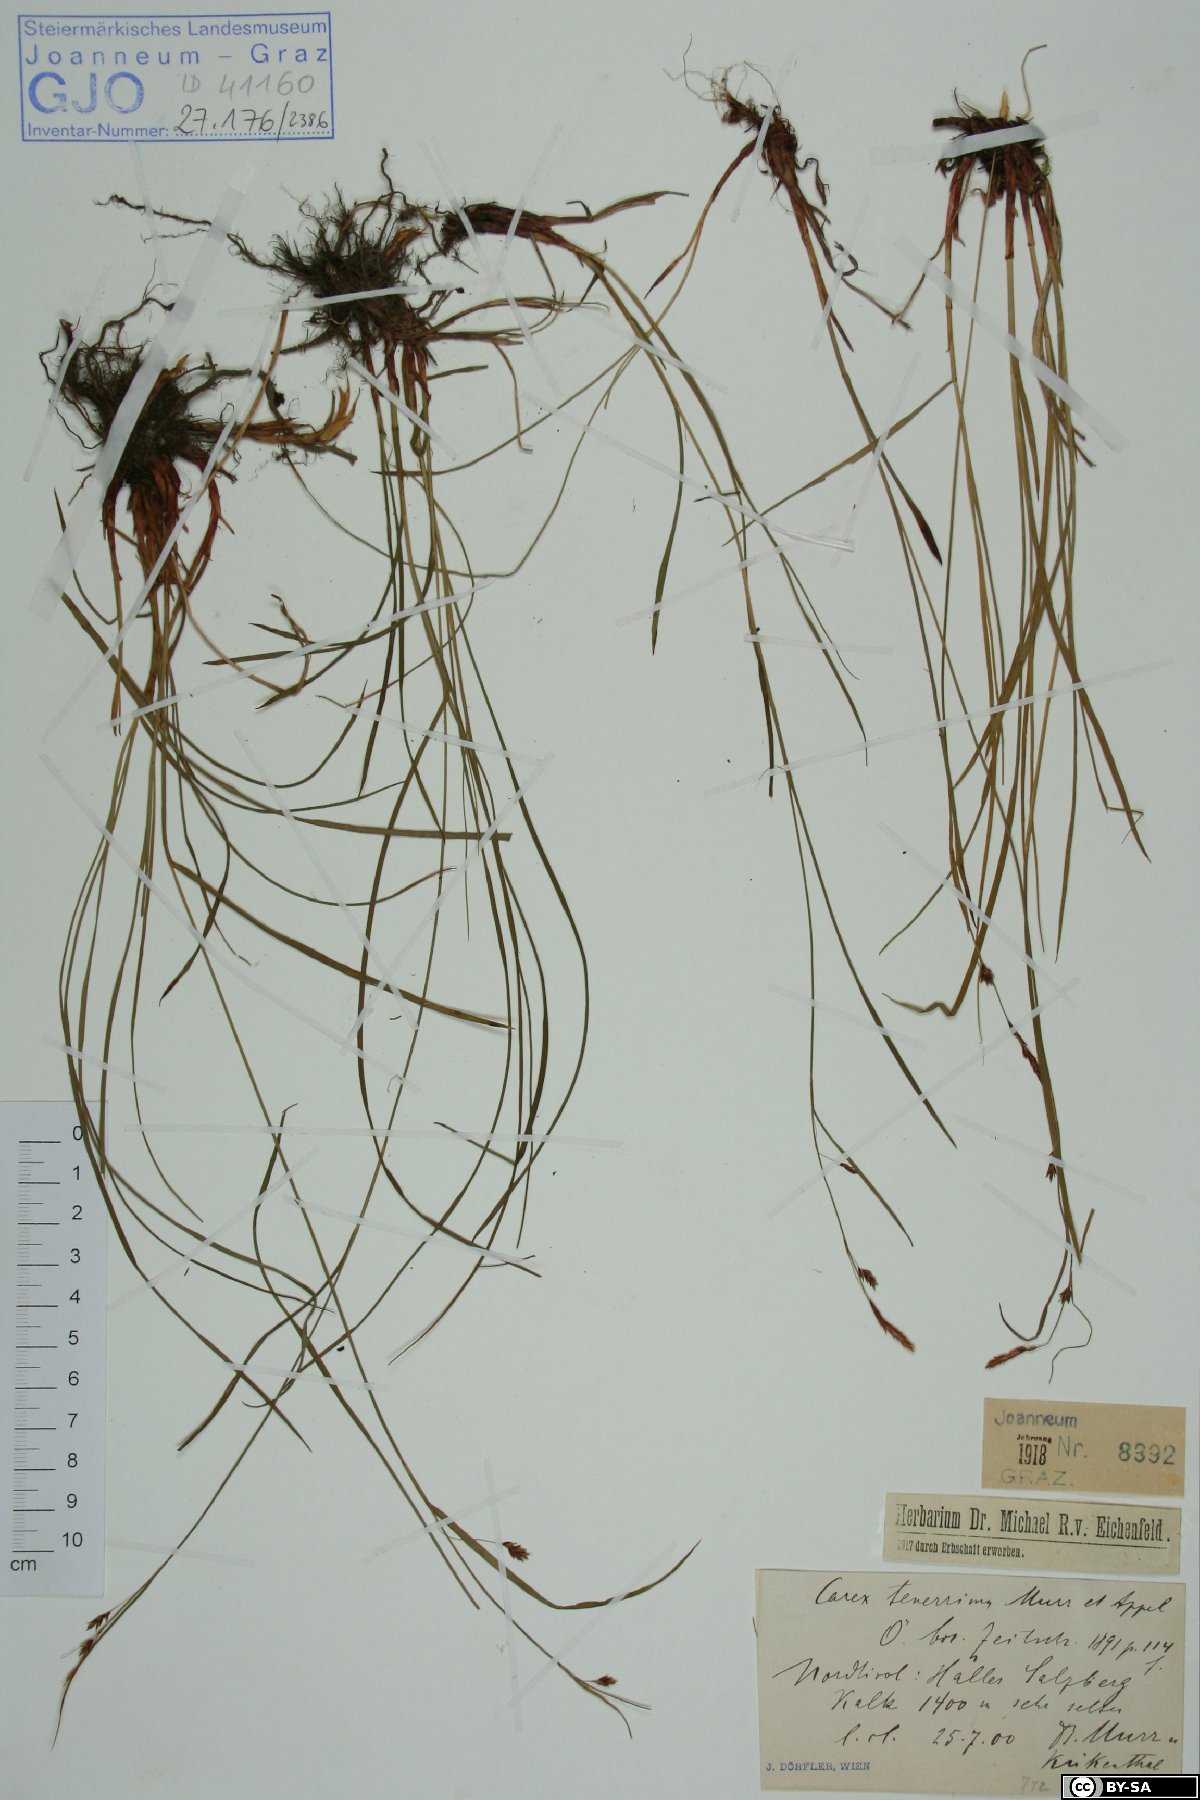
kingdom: Plantae
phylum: Tracheophyta
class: Liliopsida
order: Poales
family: Cyperaceae
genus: Carex
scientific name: Carex ferruginea
